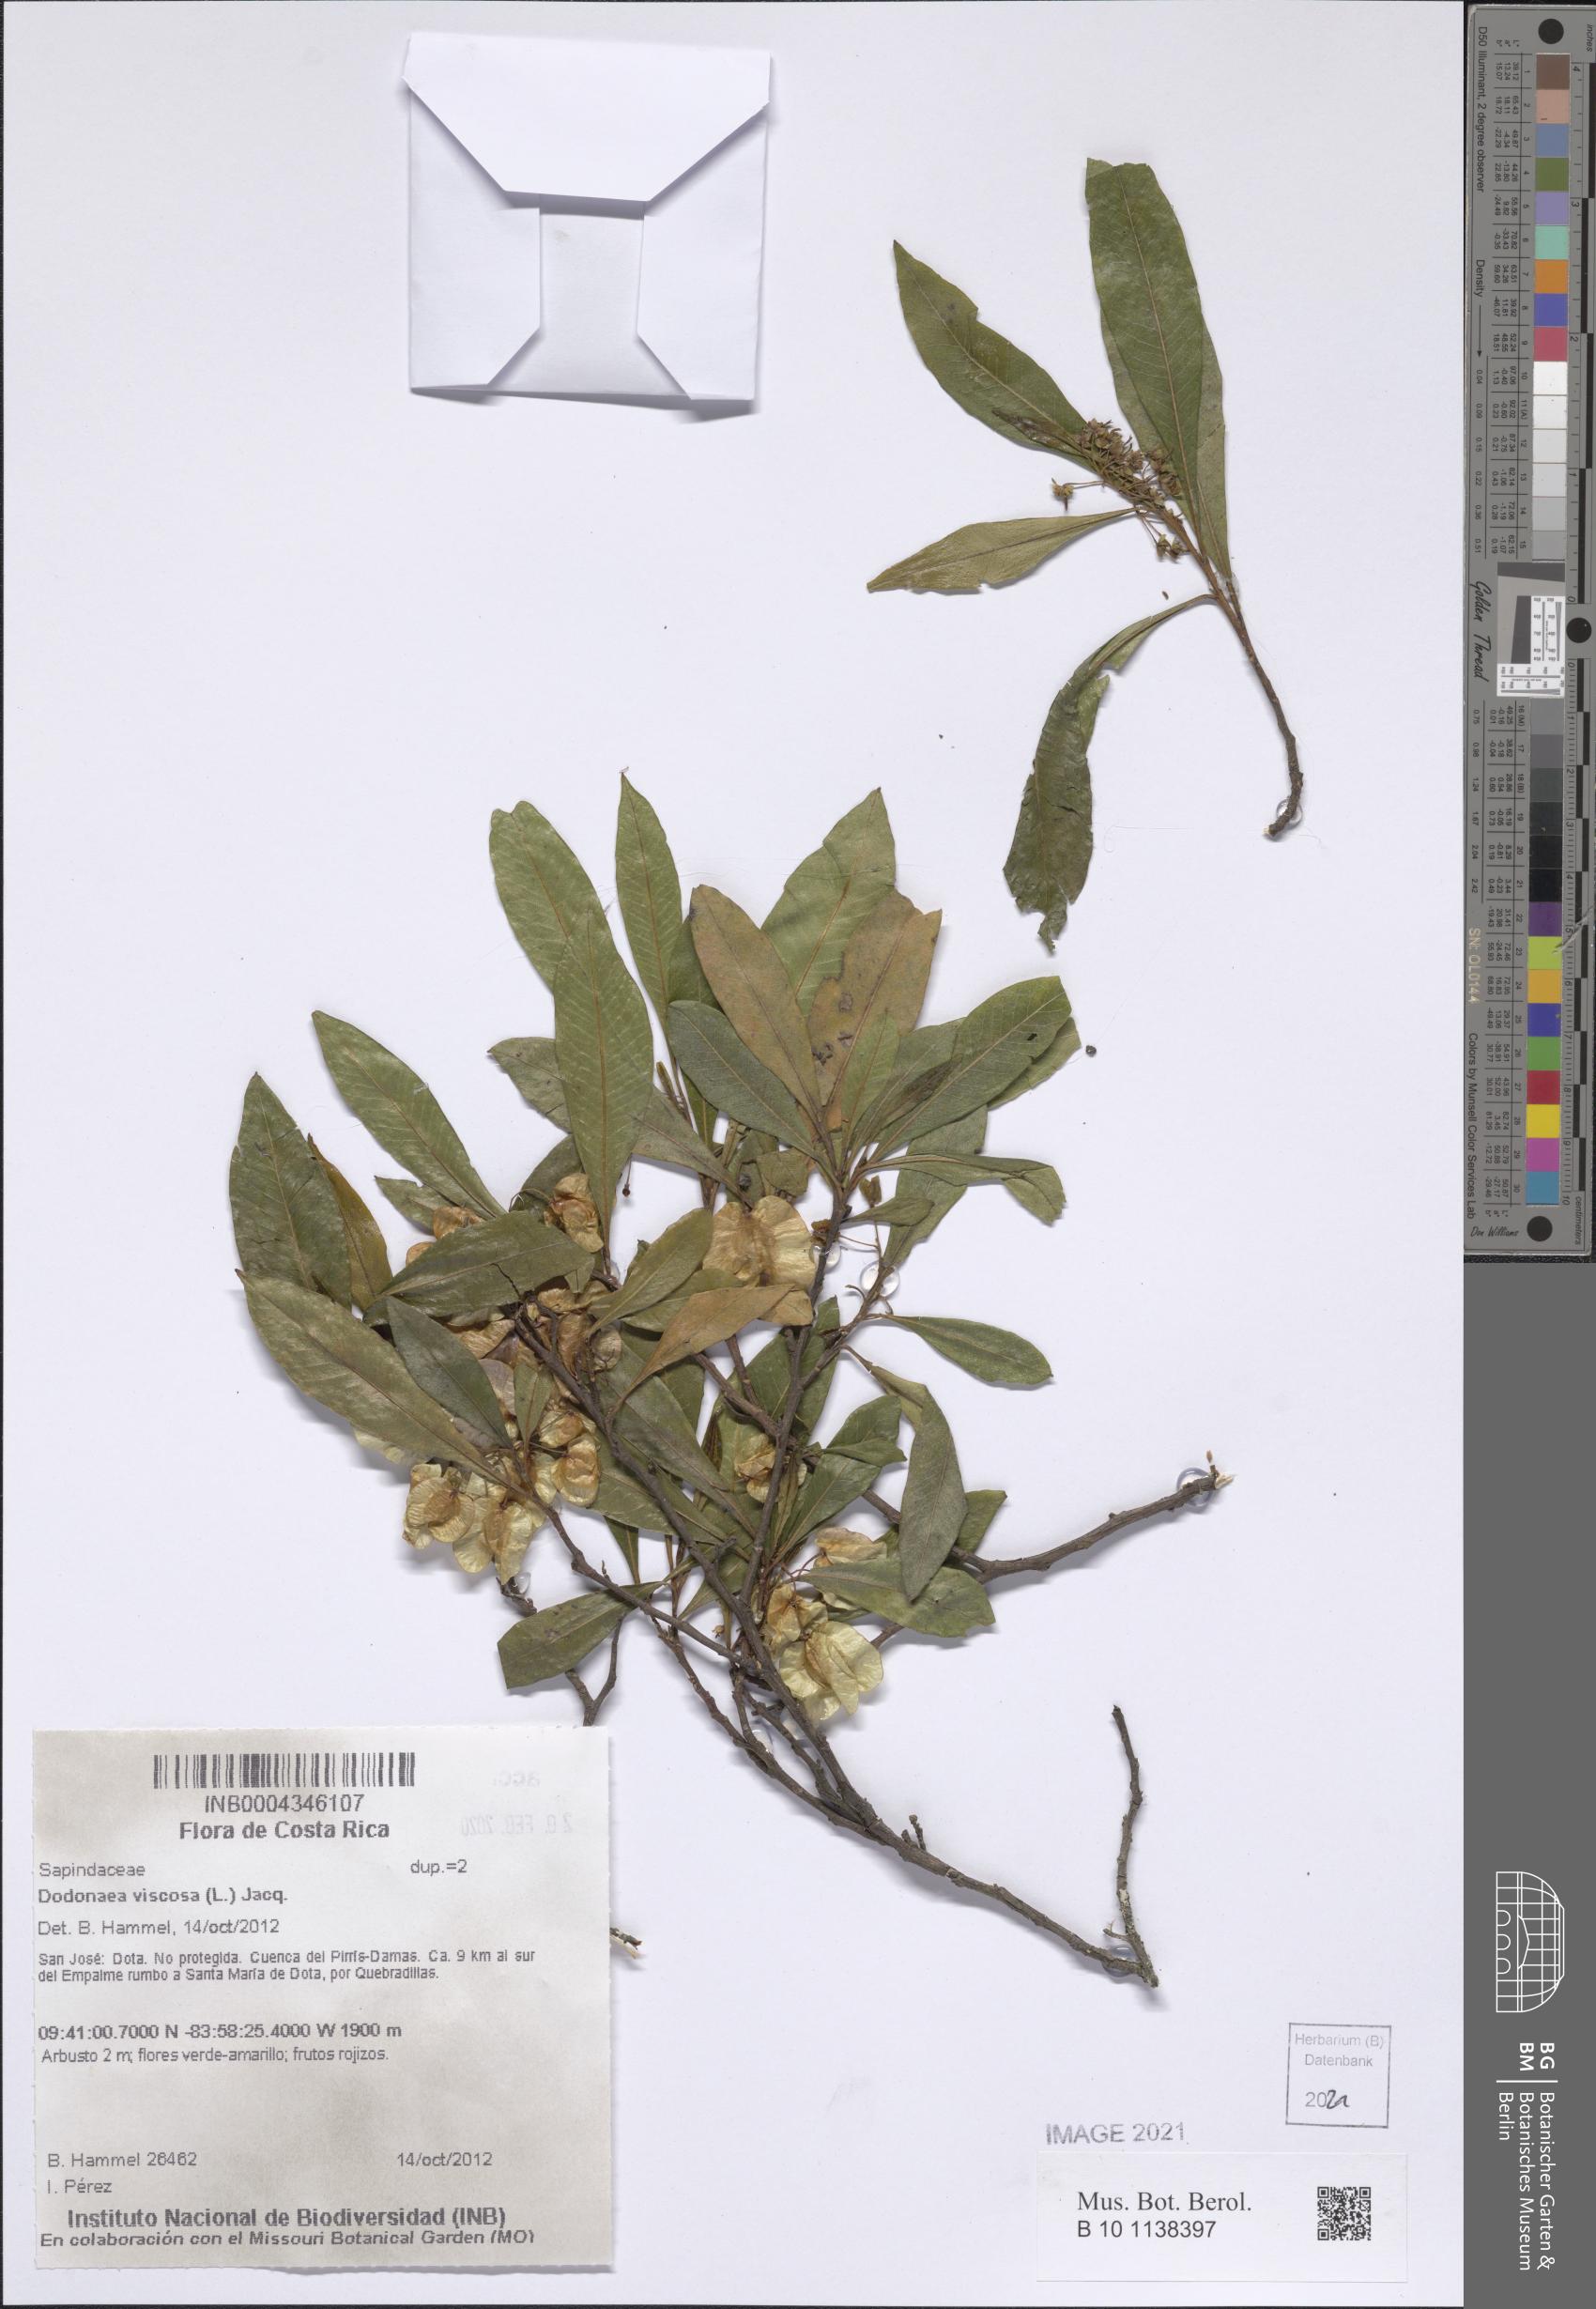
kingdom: Plantae
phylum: Tracheophyta
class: Magnoliopsida
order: Sapindales
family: Sapindaceae
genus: Dodonaea
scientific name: Dodonaea viscosa
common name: Hopbush
